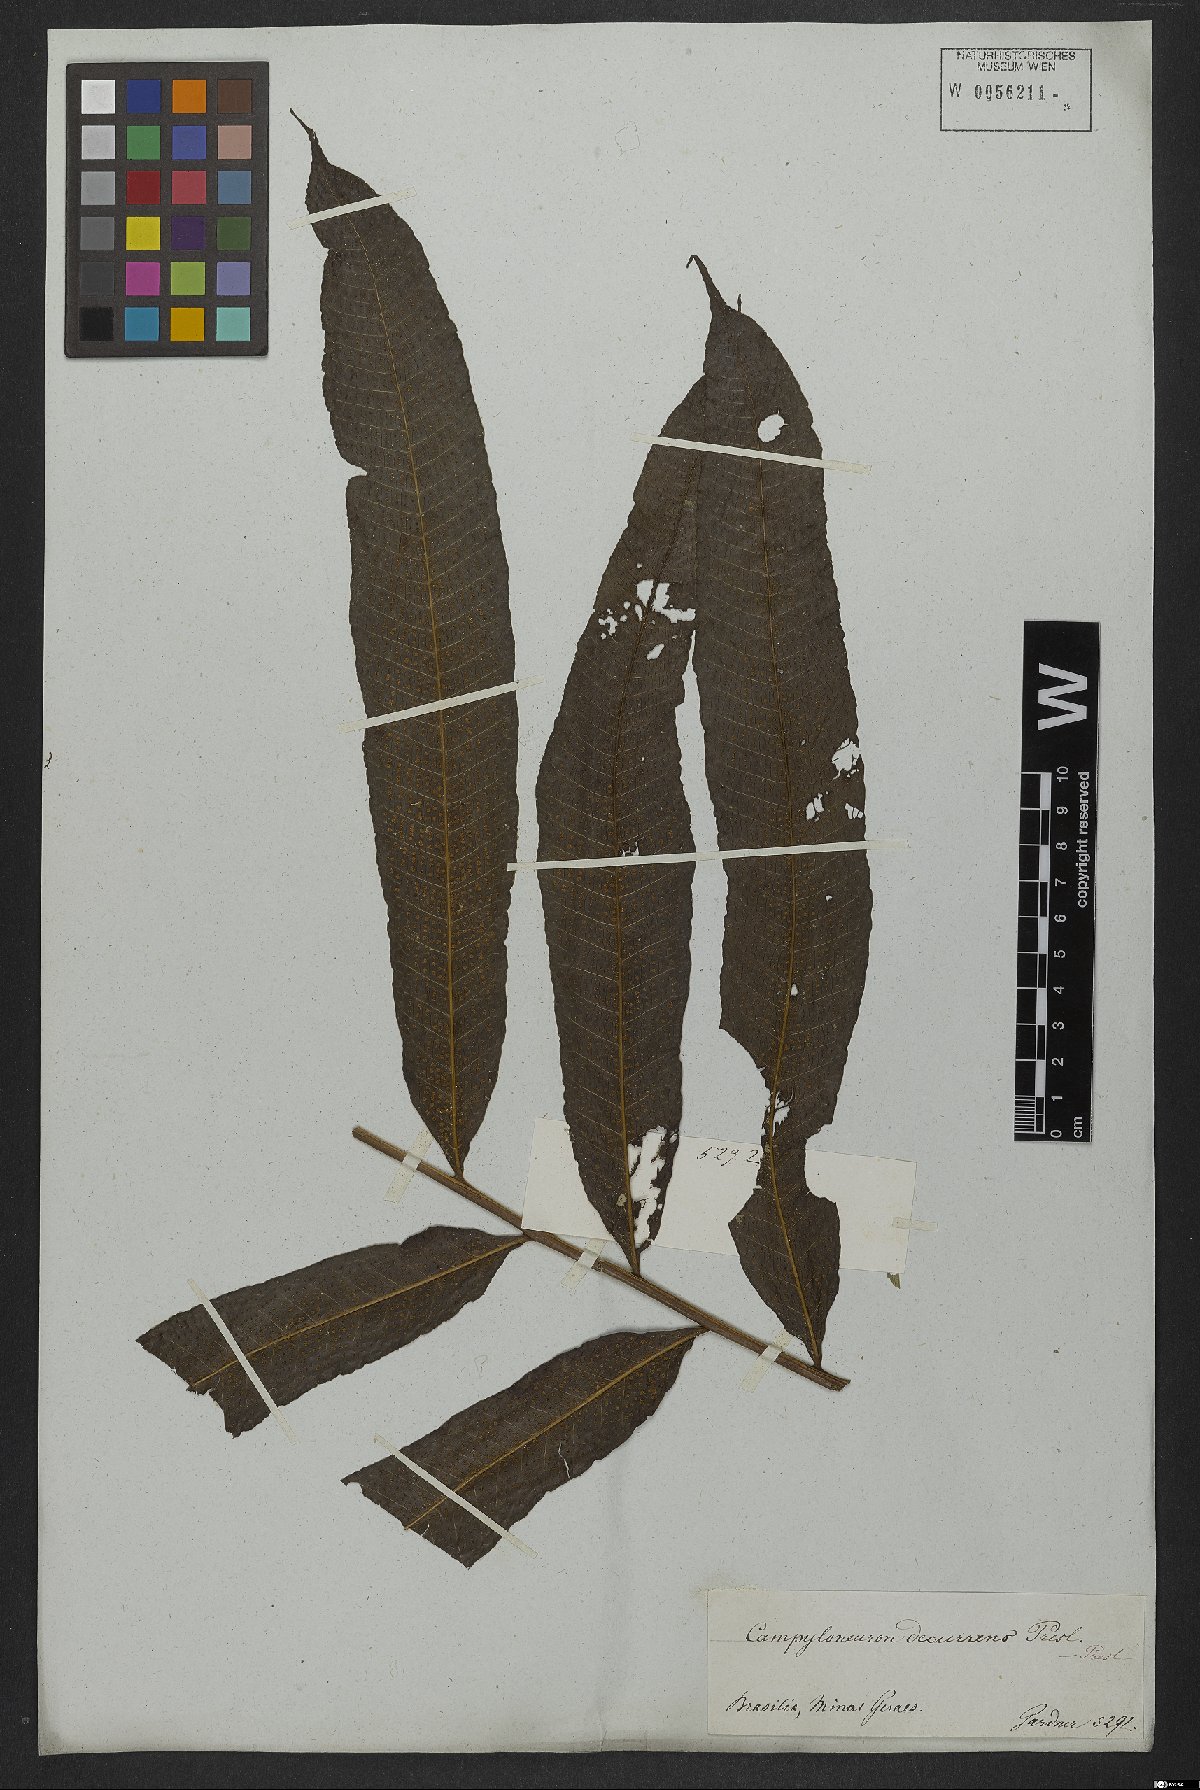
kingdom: Plantae
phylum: Tracheophyta
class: Polypodiopsida
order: Polypodiales
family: Polypodiaceae
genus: Campyloneurum
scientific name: Campyloneurum decurrens
